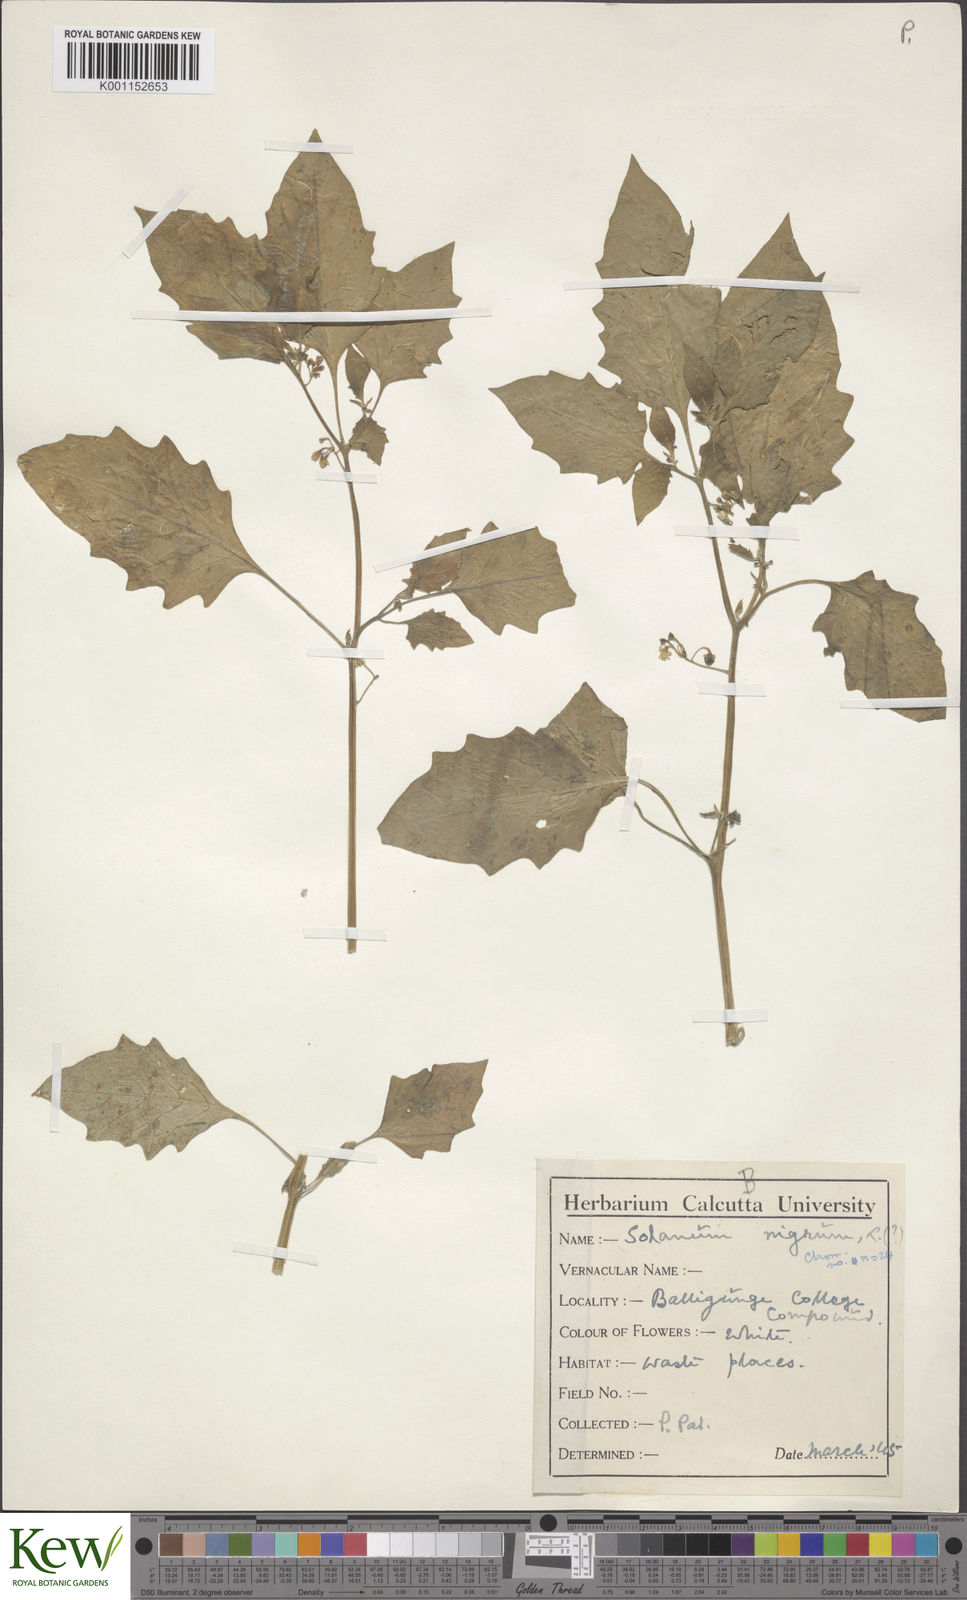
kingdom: Plantae
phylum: Tracheophyta
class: Magnoliopsida
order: Solanales
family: Solanaceae
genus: Solanum
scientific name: Solanum nigrum
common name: Black nightshade
